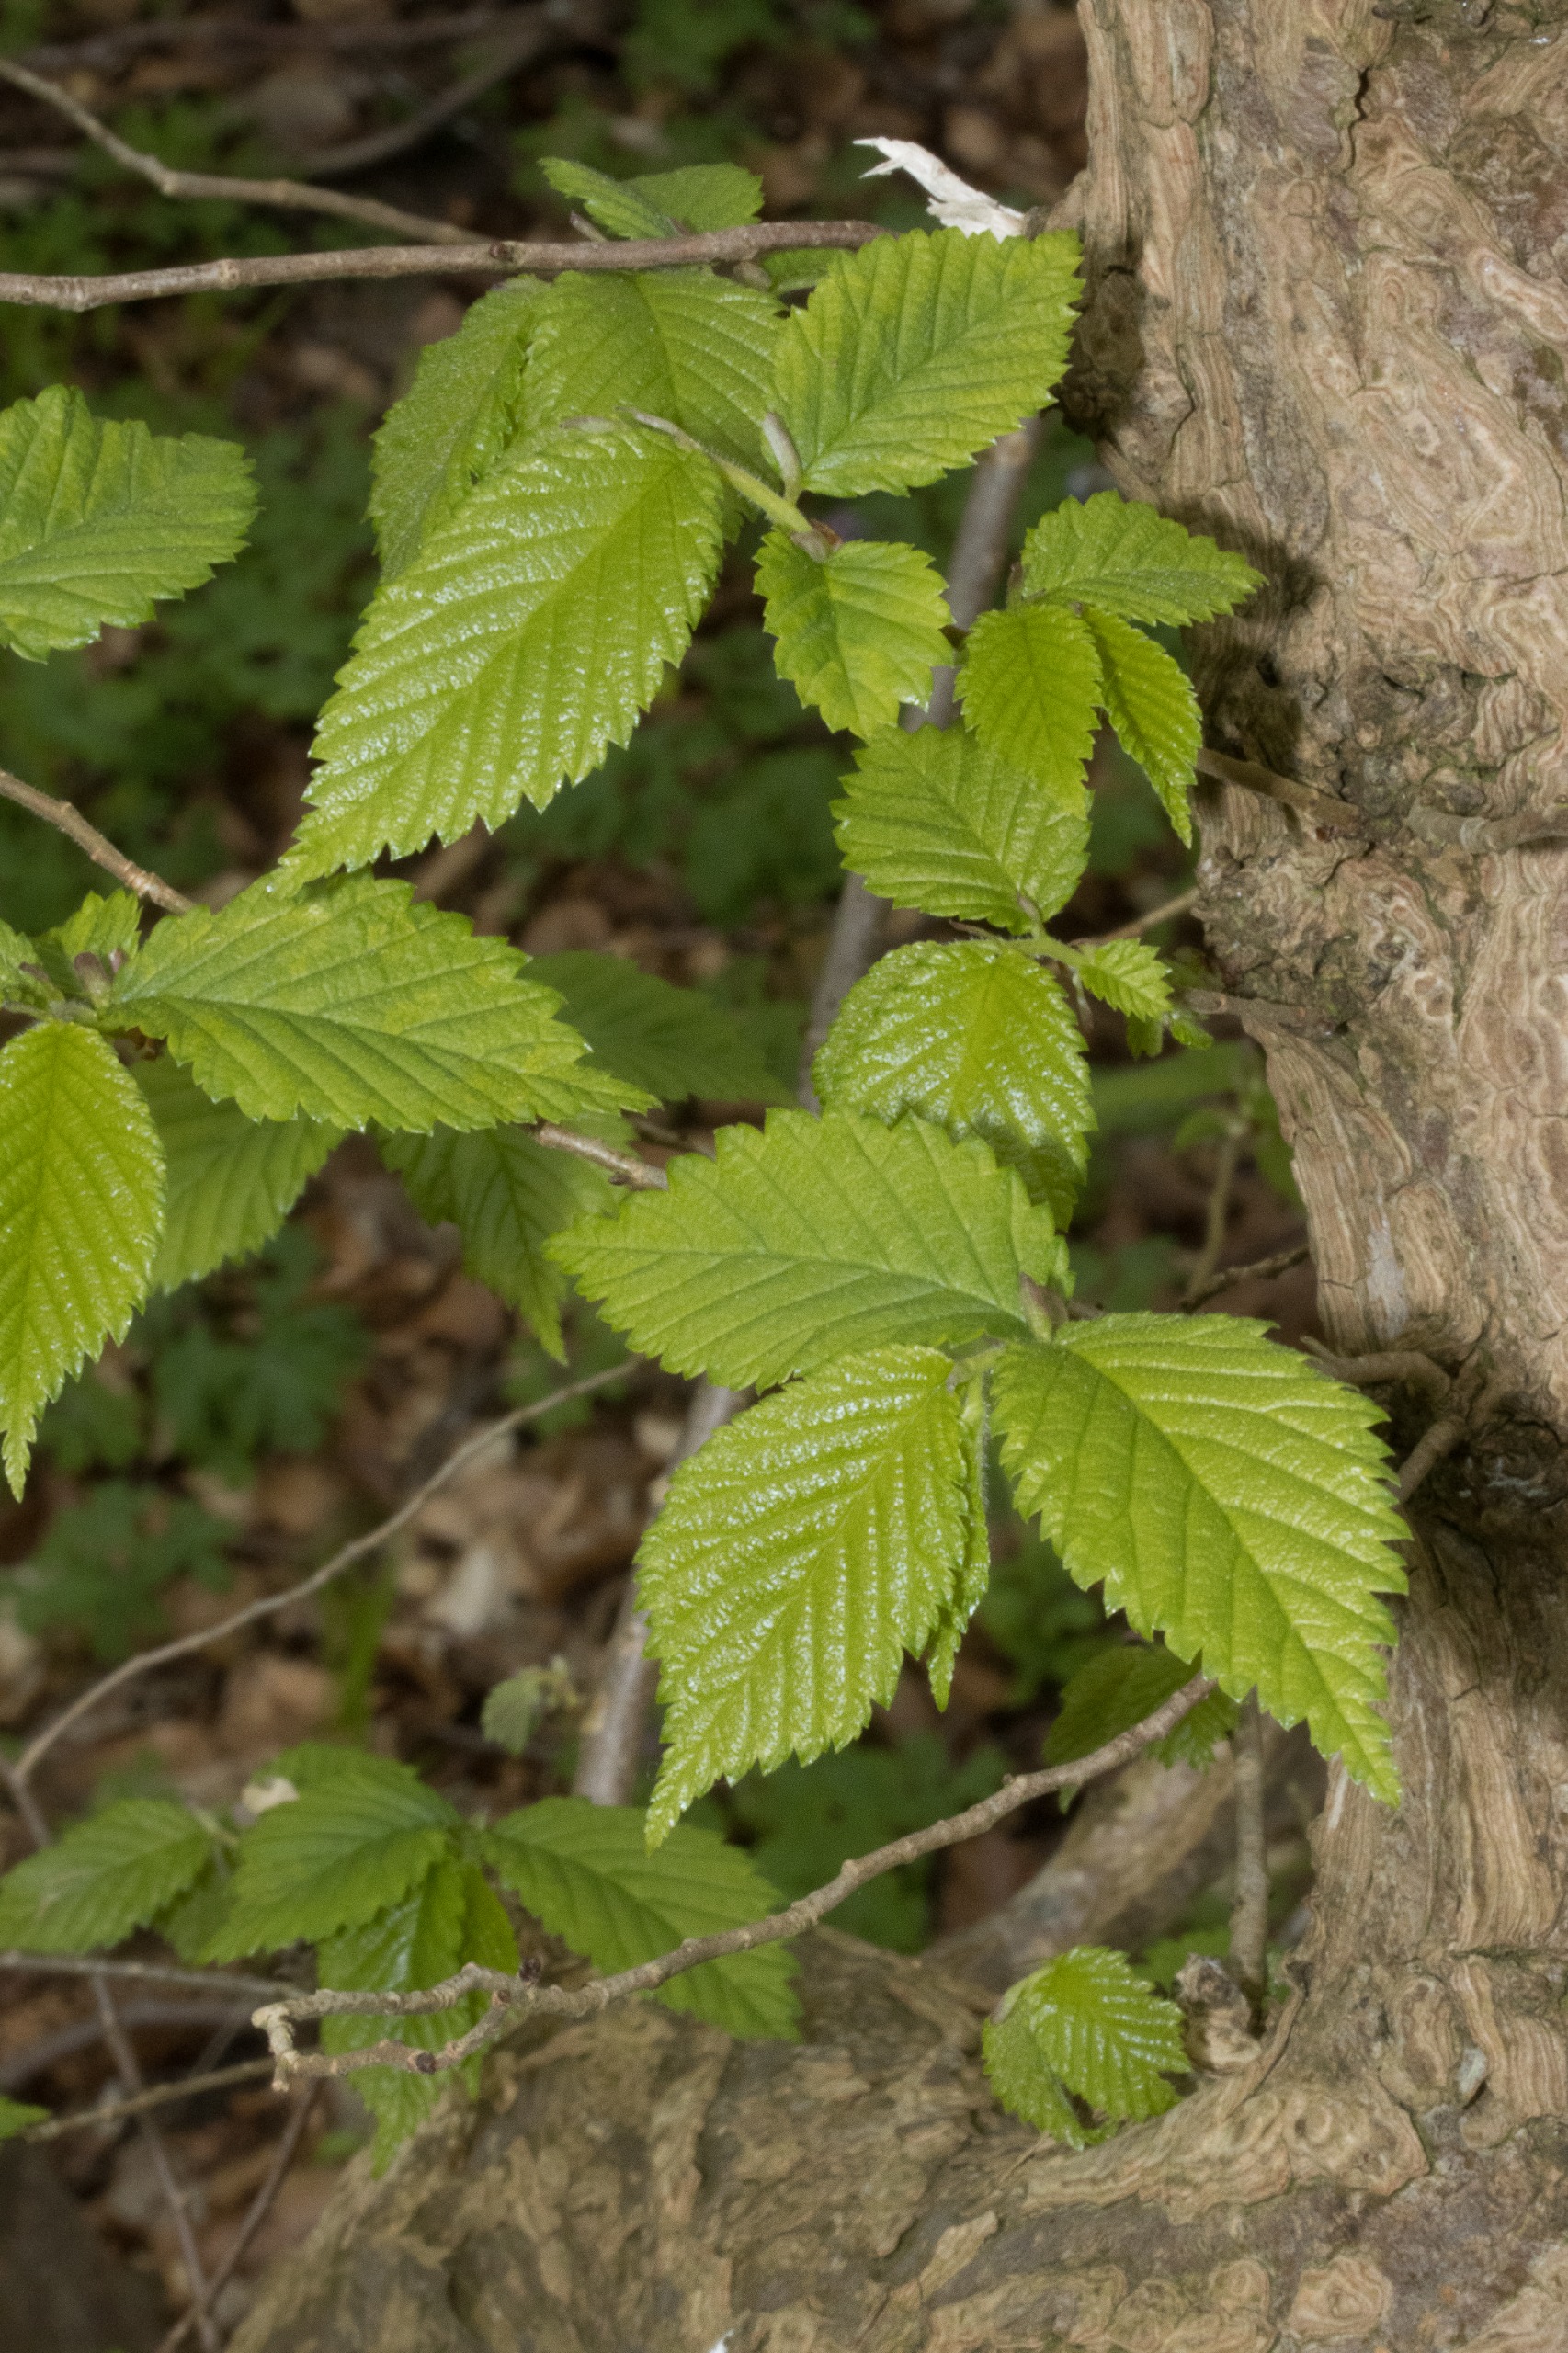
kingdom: Plantae
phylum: Tracheophyta
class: Magnoliopsida
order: Rosales
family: Ulmaceae
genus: Ulmus
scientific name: Ulmus glabra
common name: Skov-elm/storbladet elm
